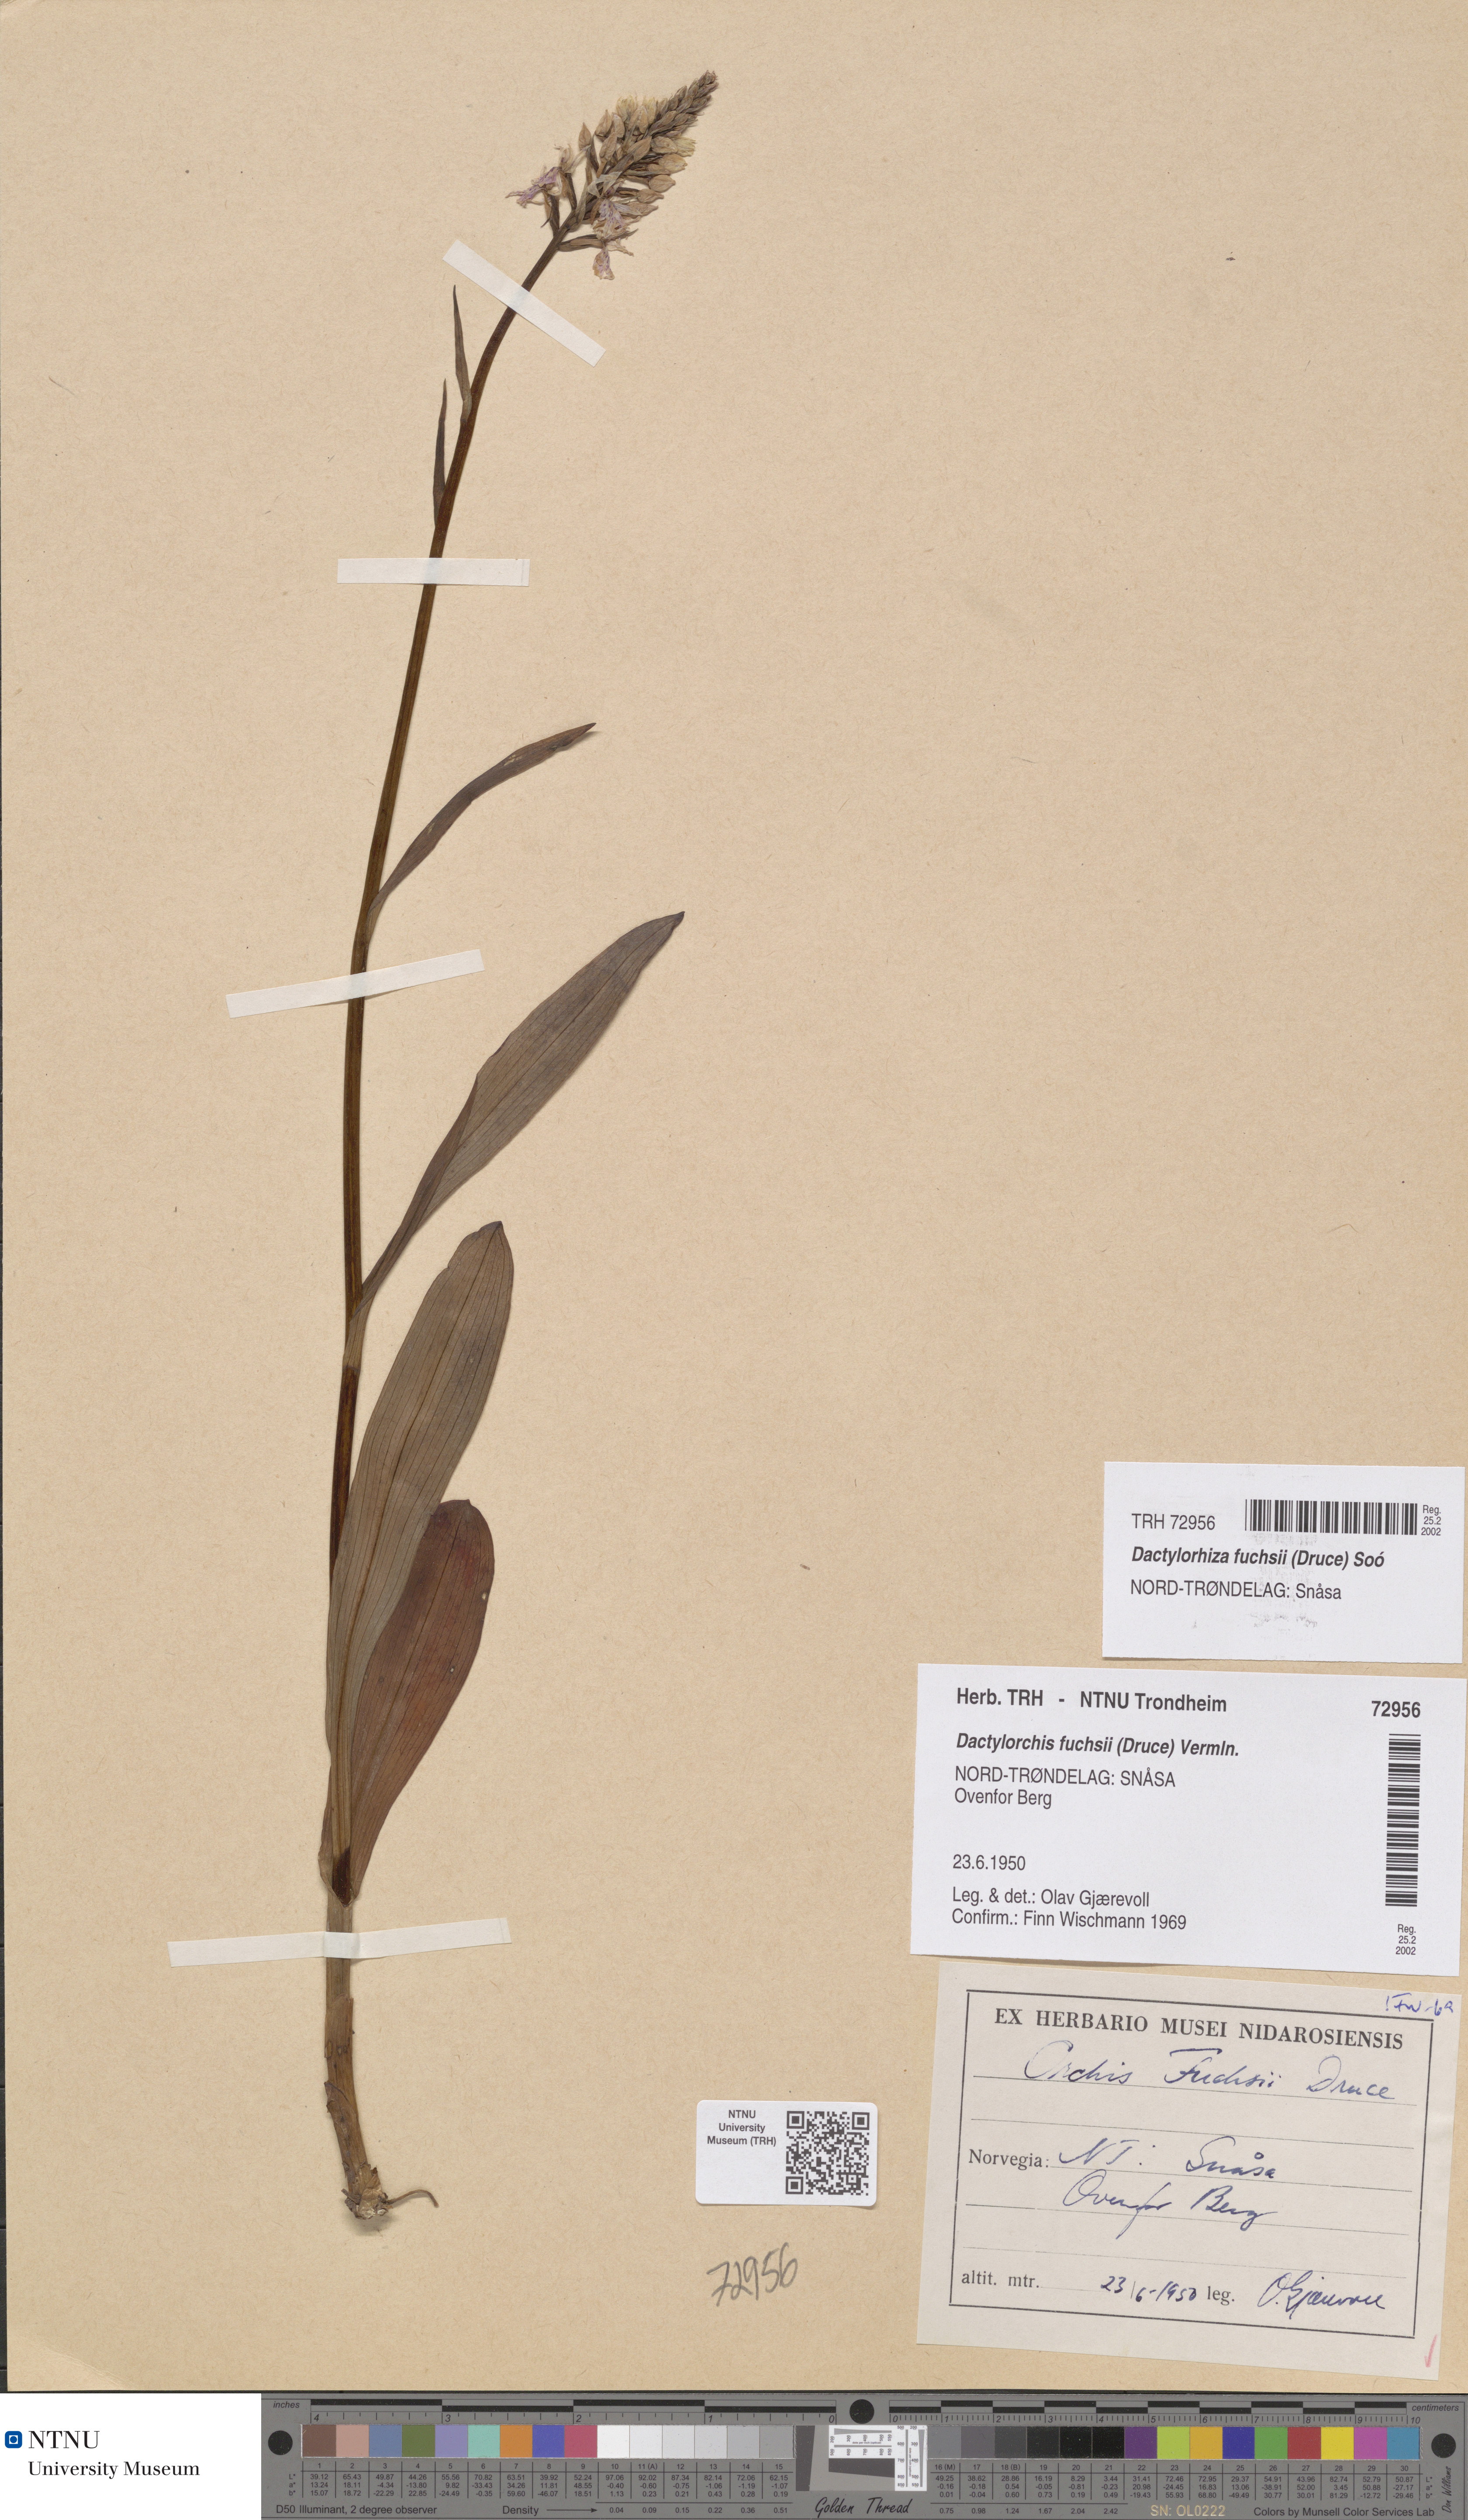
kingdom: Plantae
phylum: Tracheophyta
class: Liliopsida
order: Asparagales
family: Orchidaceae
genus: Dactylorhiza
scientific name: Dactylorhiza maculata
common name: Heath spotted-orchid
